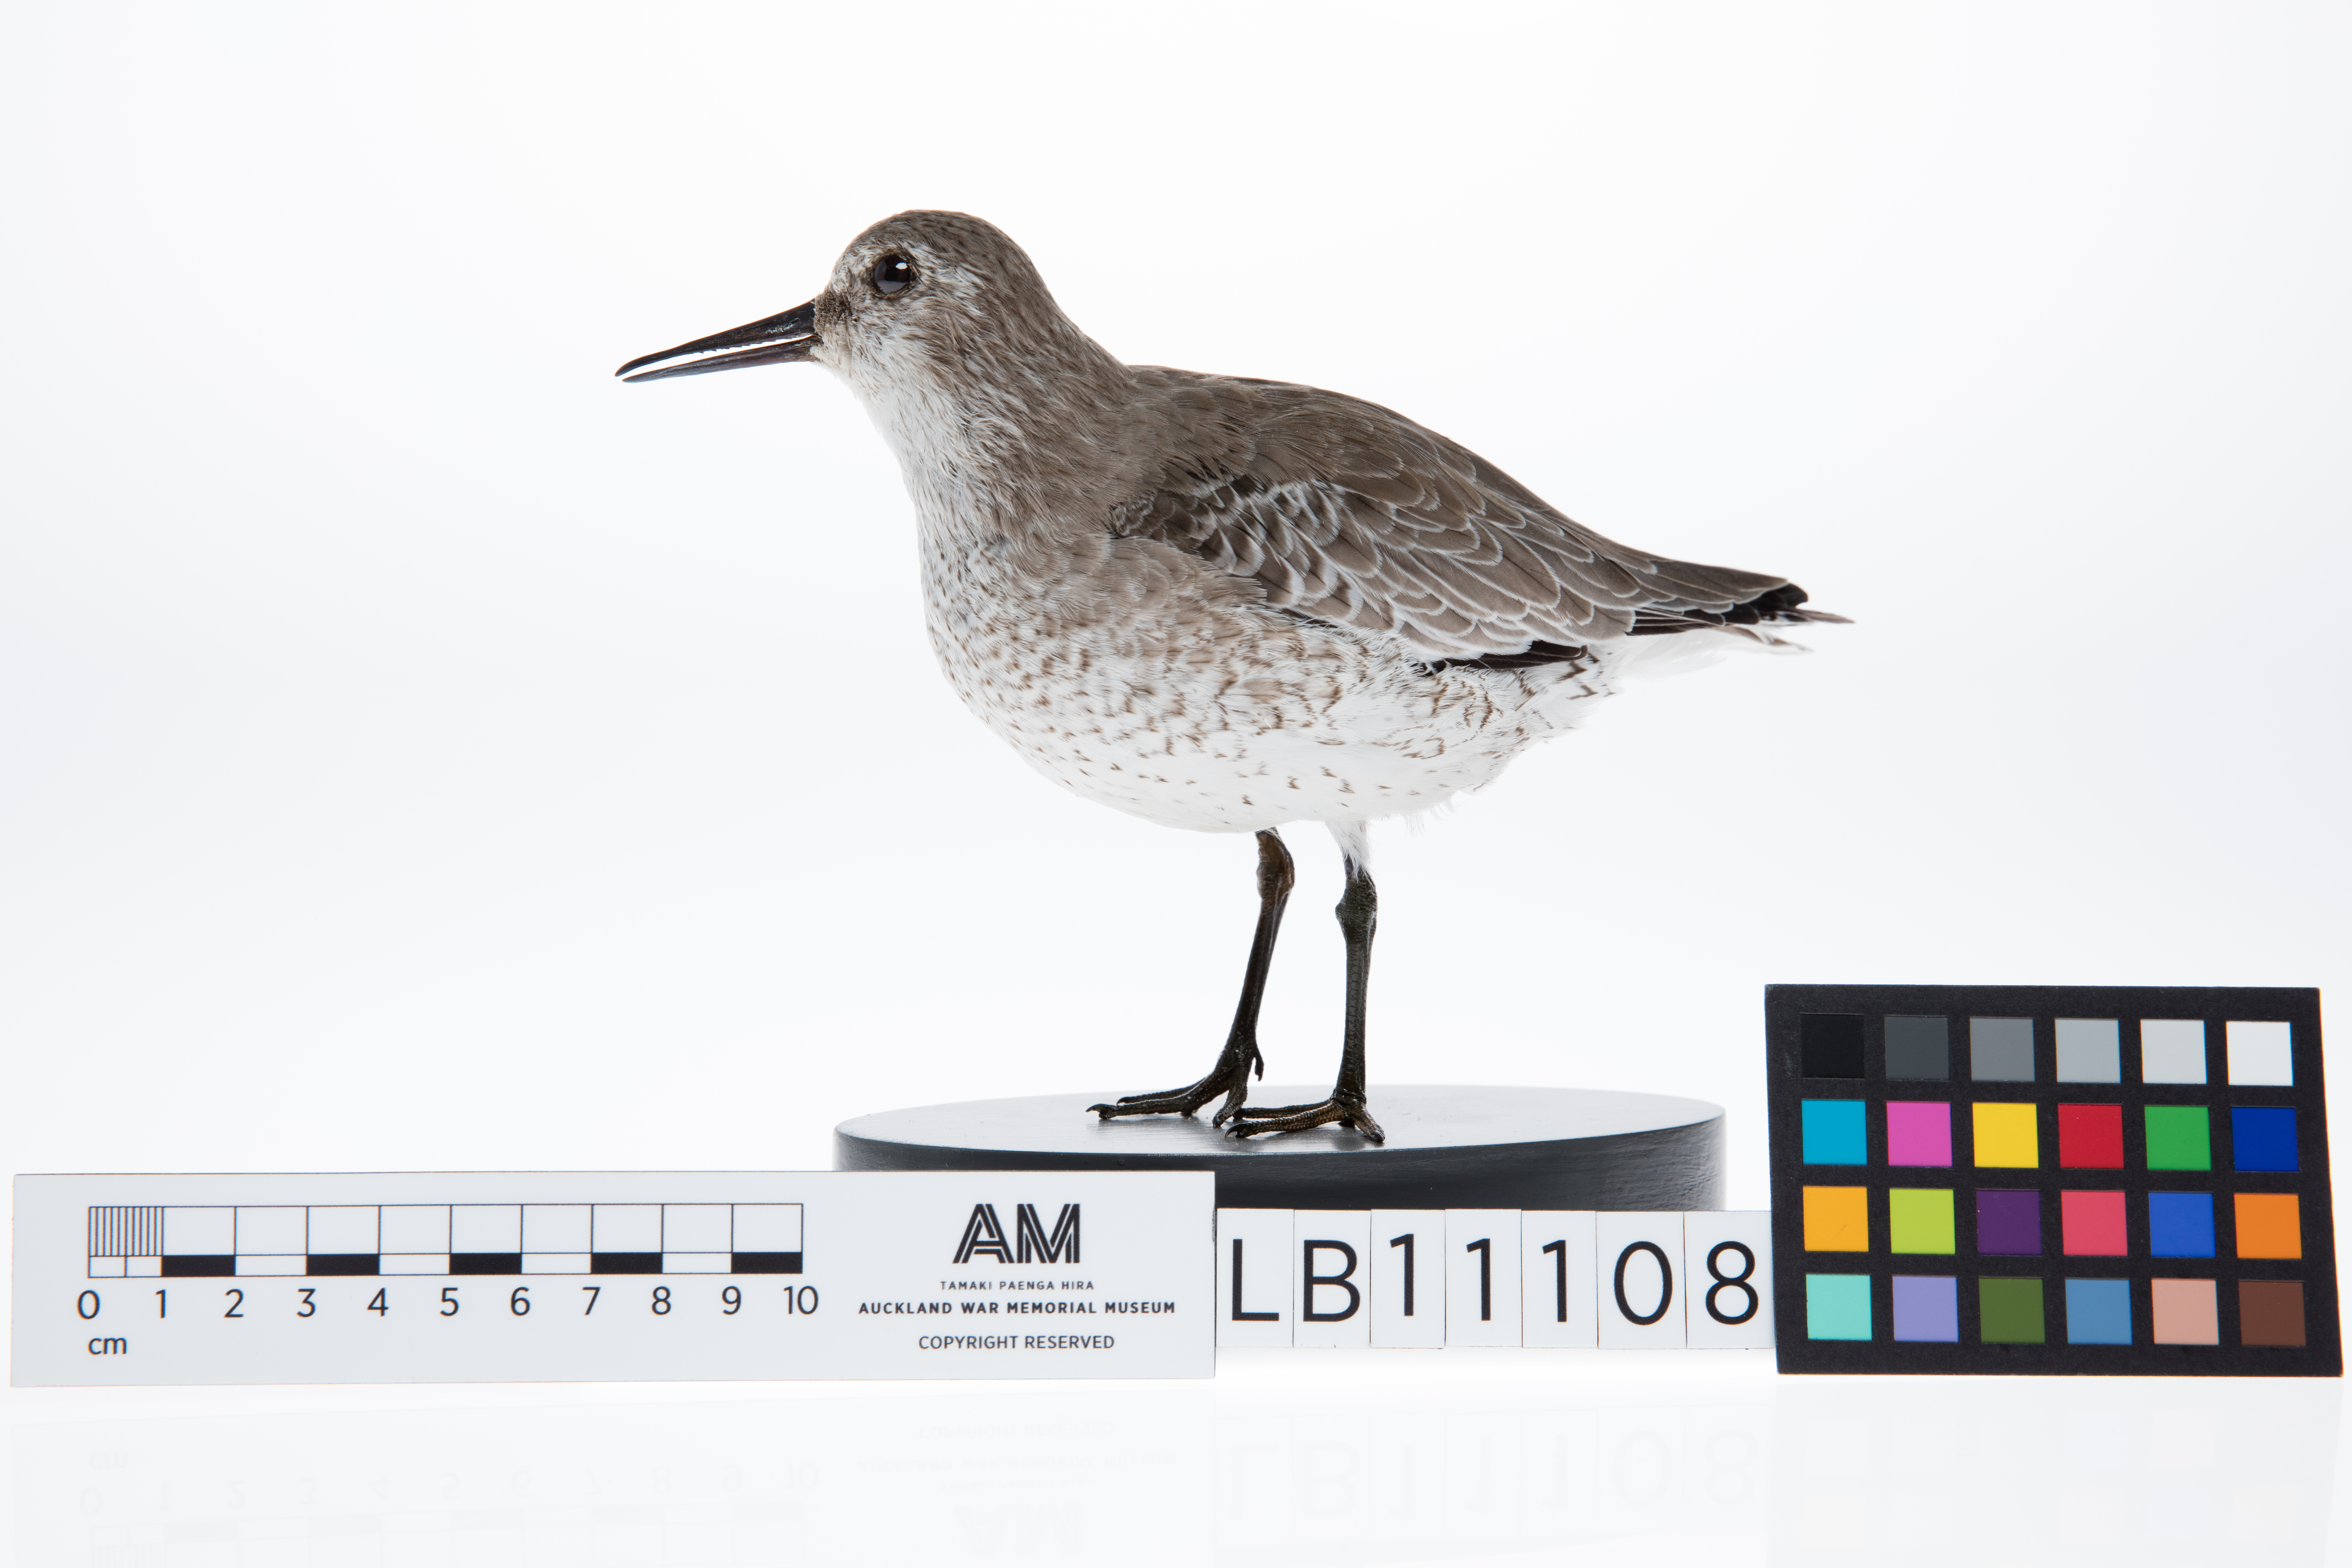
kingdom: Animalia
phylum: Chordata
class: Aves
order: Charadriiformes
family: Scolopacidae
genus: Calidris
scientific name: Calidris canutus
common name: Red knot
